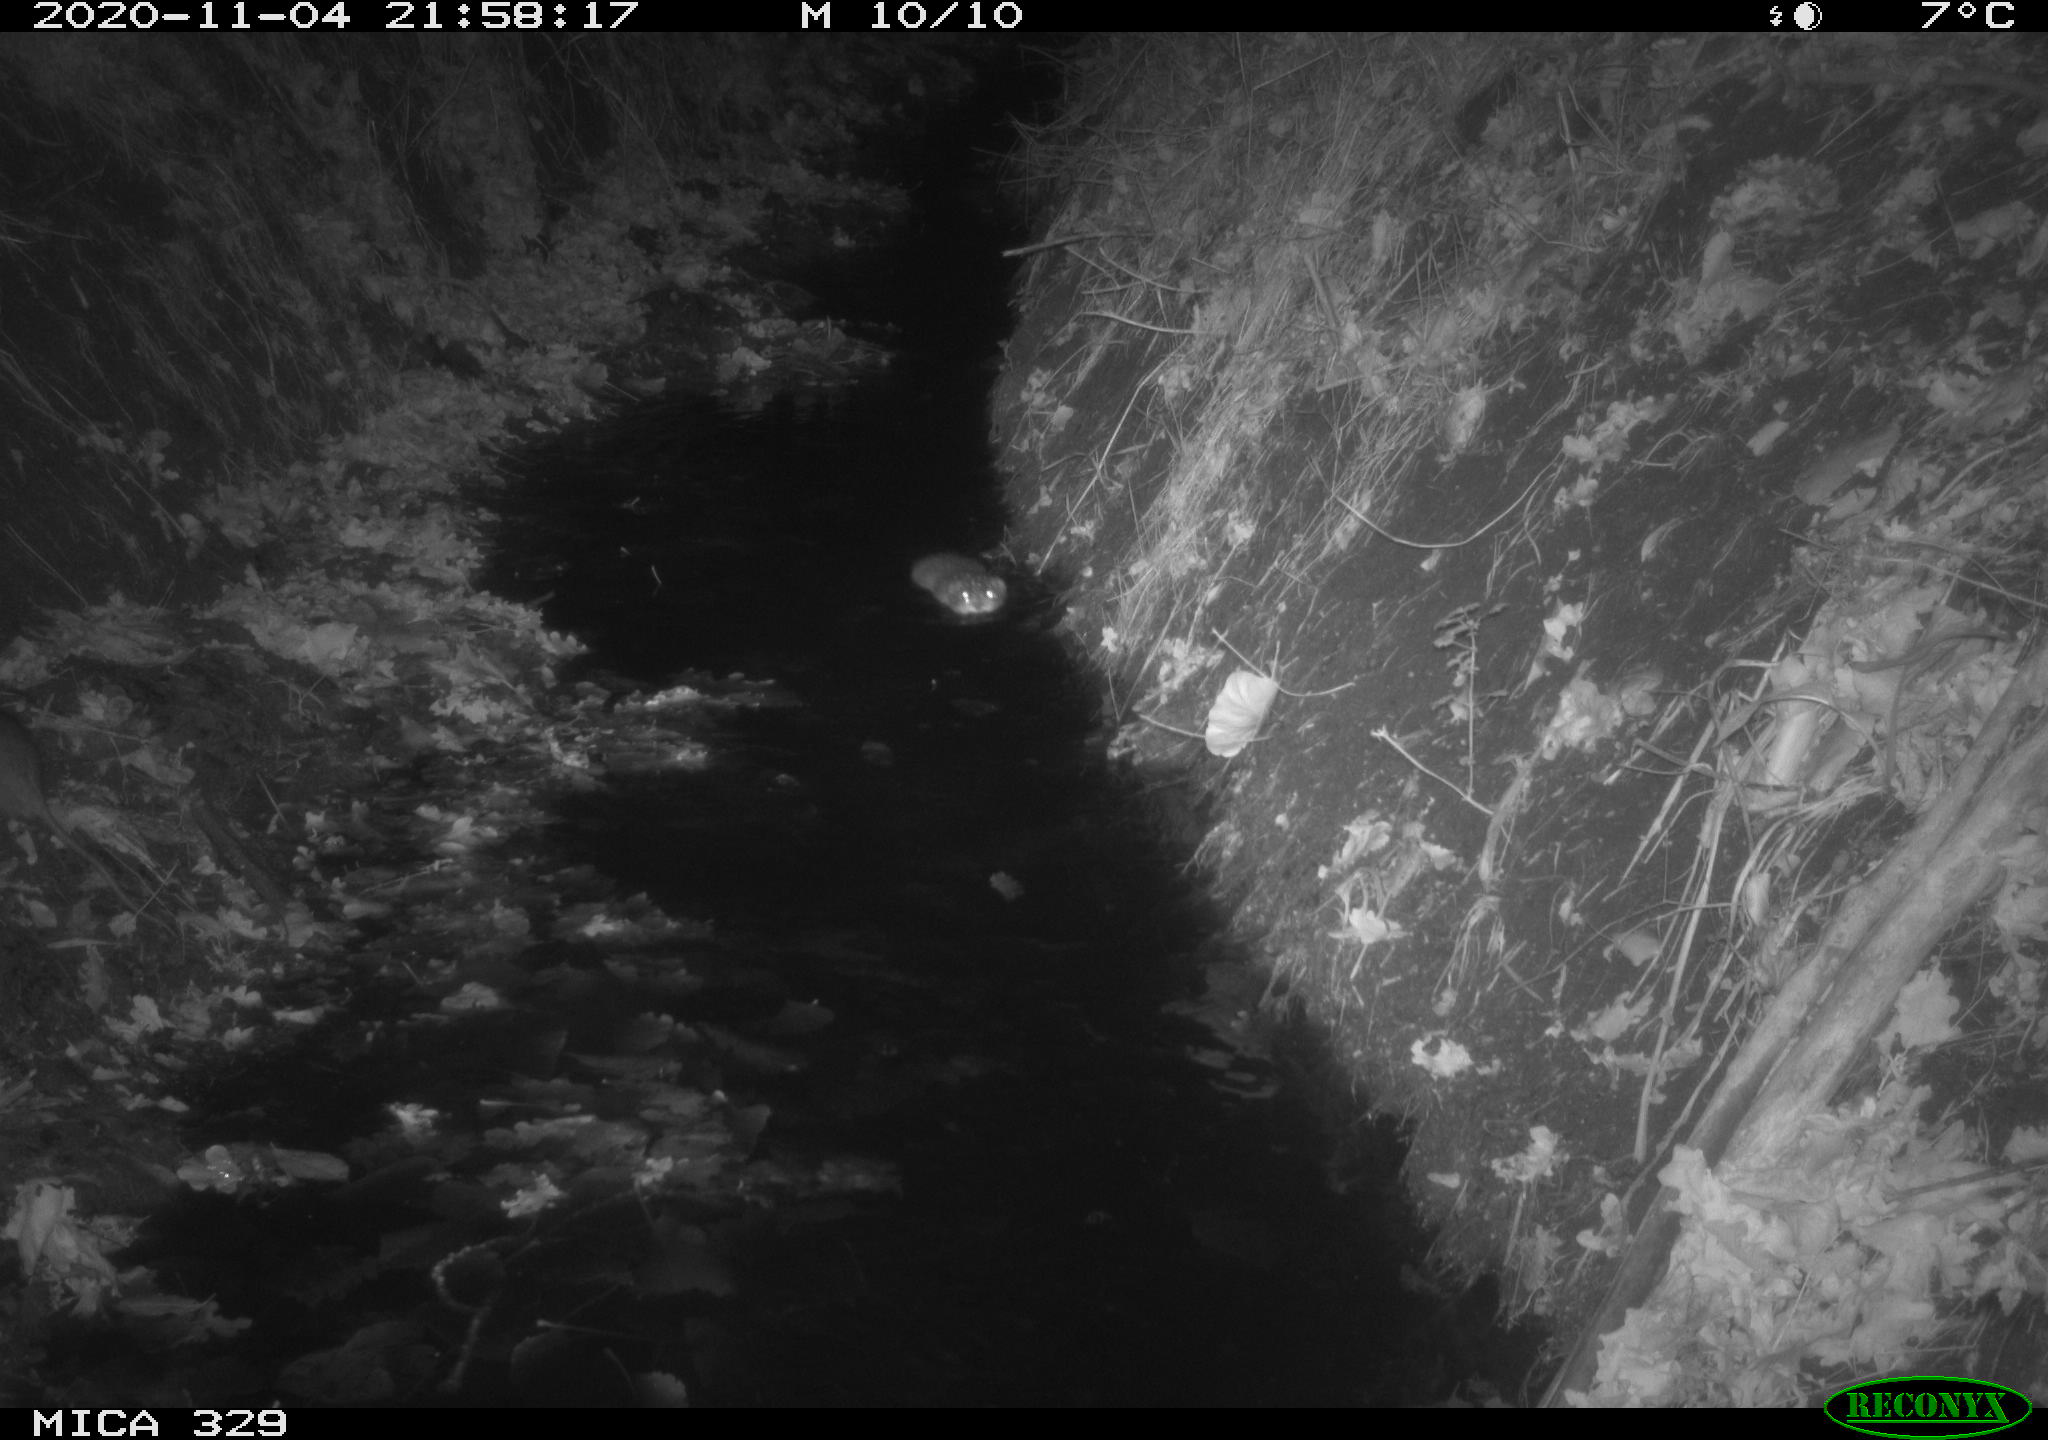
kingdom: Animalia
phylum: Chordata
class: Mammalia
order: Rodentia
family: Muridae
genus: Rattus
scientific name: Rattus norvegicus
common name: Brown rat
